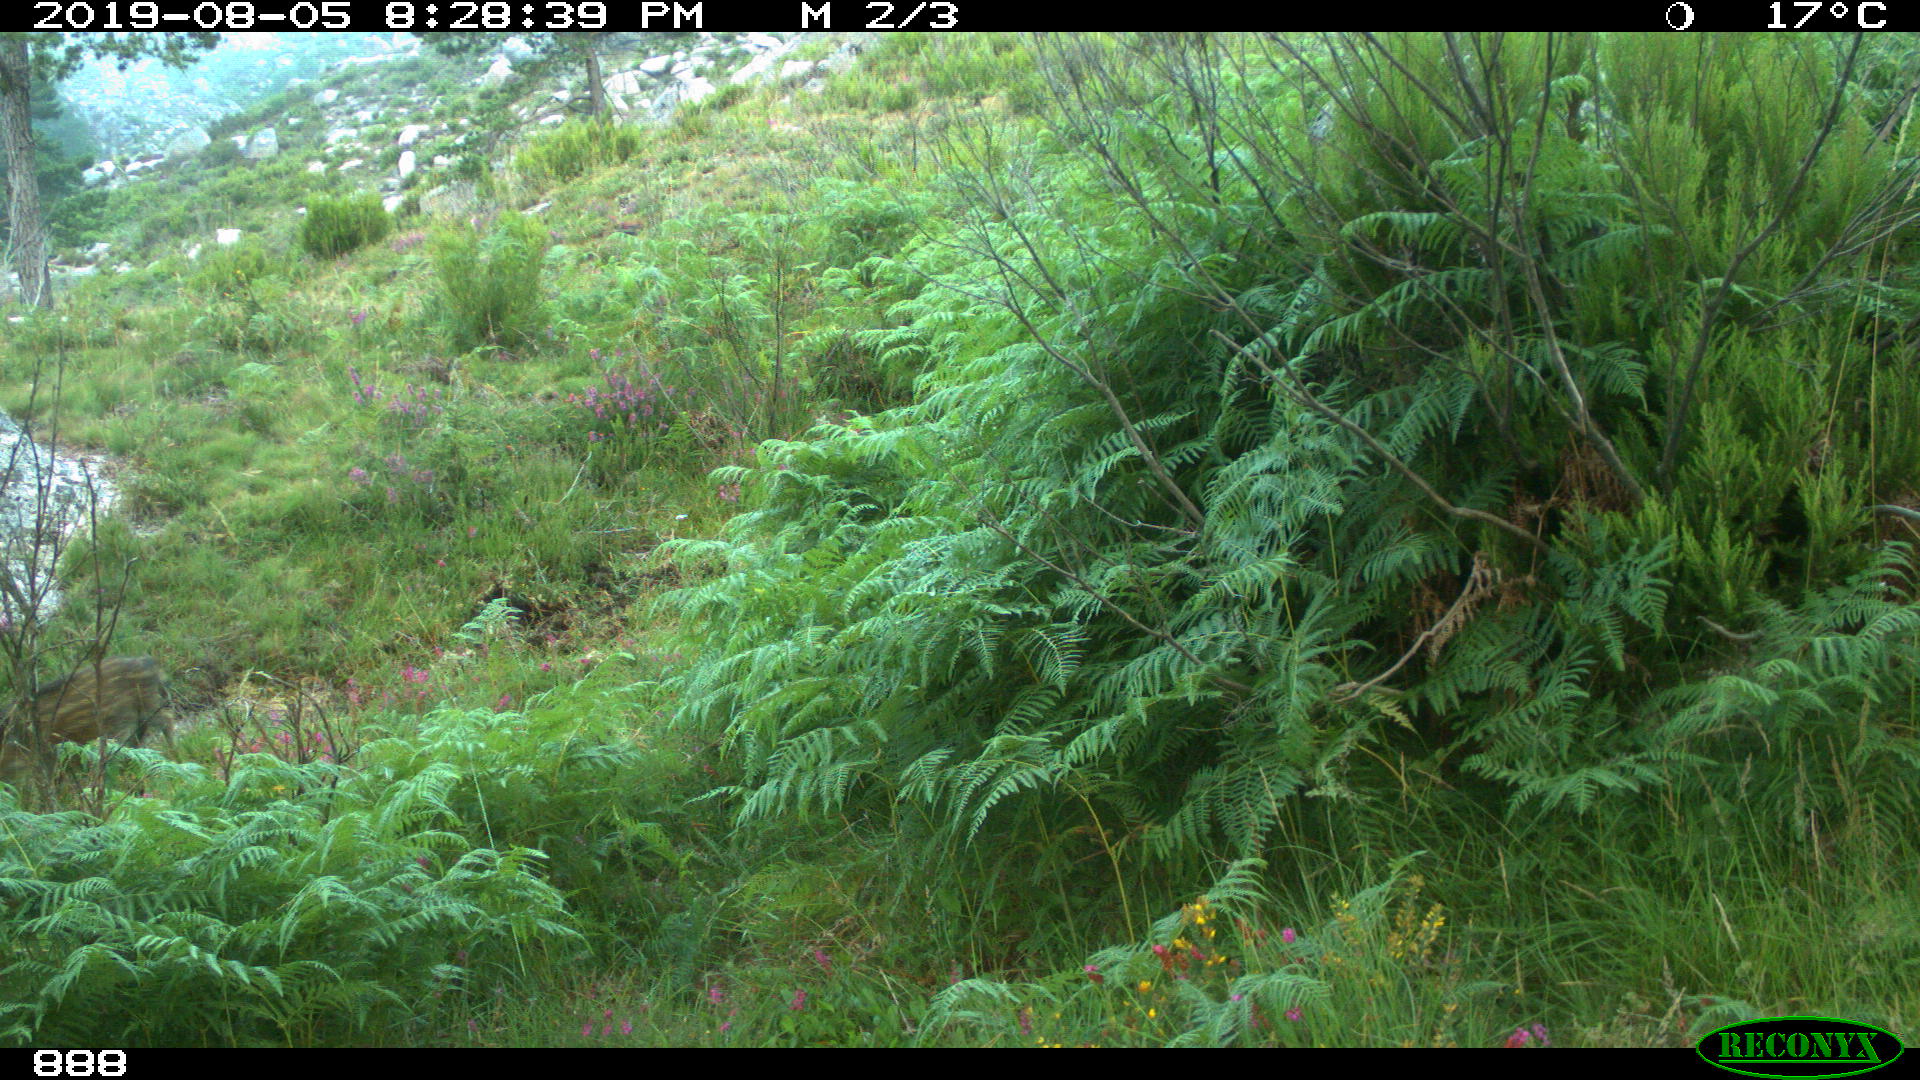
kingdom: Animalia
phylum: Chordata
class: Mammalia
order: Artiodactyla
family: Suidae
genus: Sus
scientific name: Sus scrofa
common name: Wild boar
